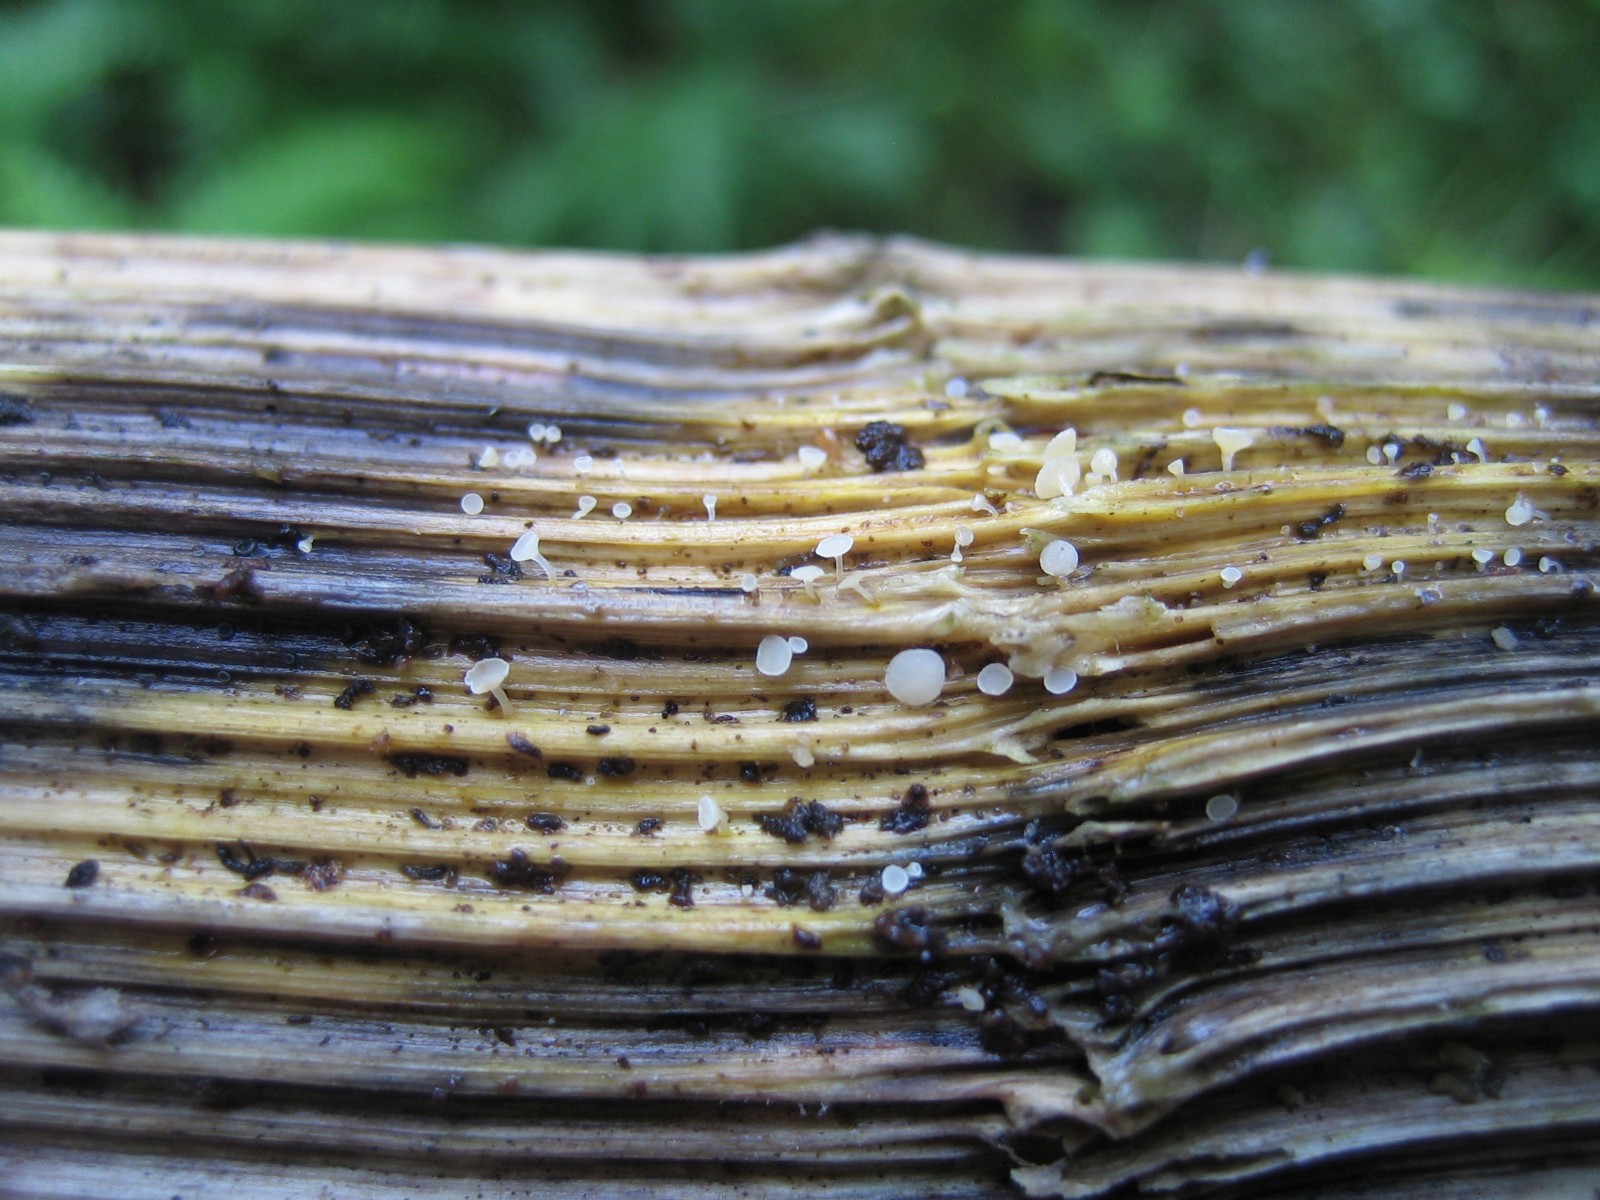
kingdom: Fungi
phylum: Ascomycota
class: Leotiomycetes
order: Helotiales
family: Helotiaceae
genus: Hymenoscyphus
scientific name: Hymenoscyphus
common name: stilkskive
